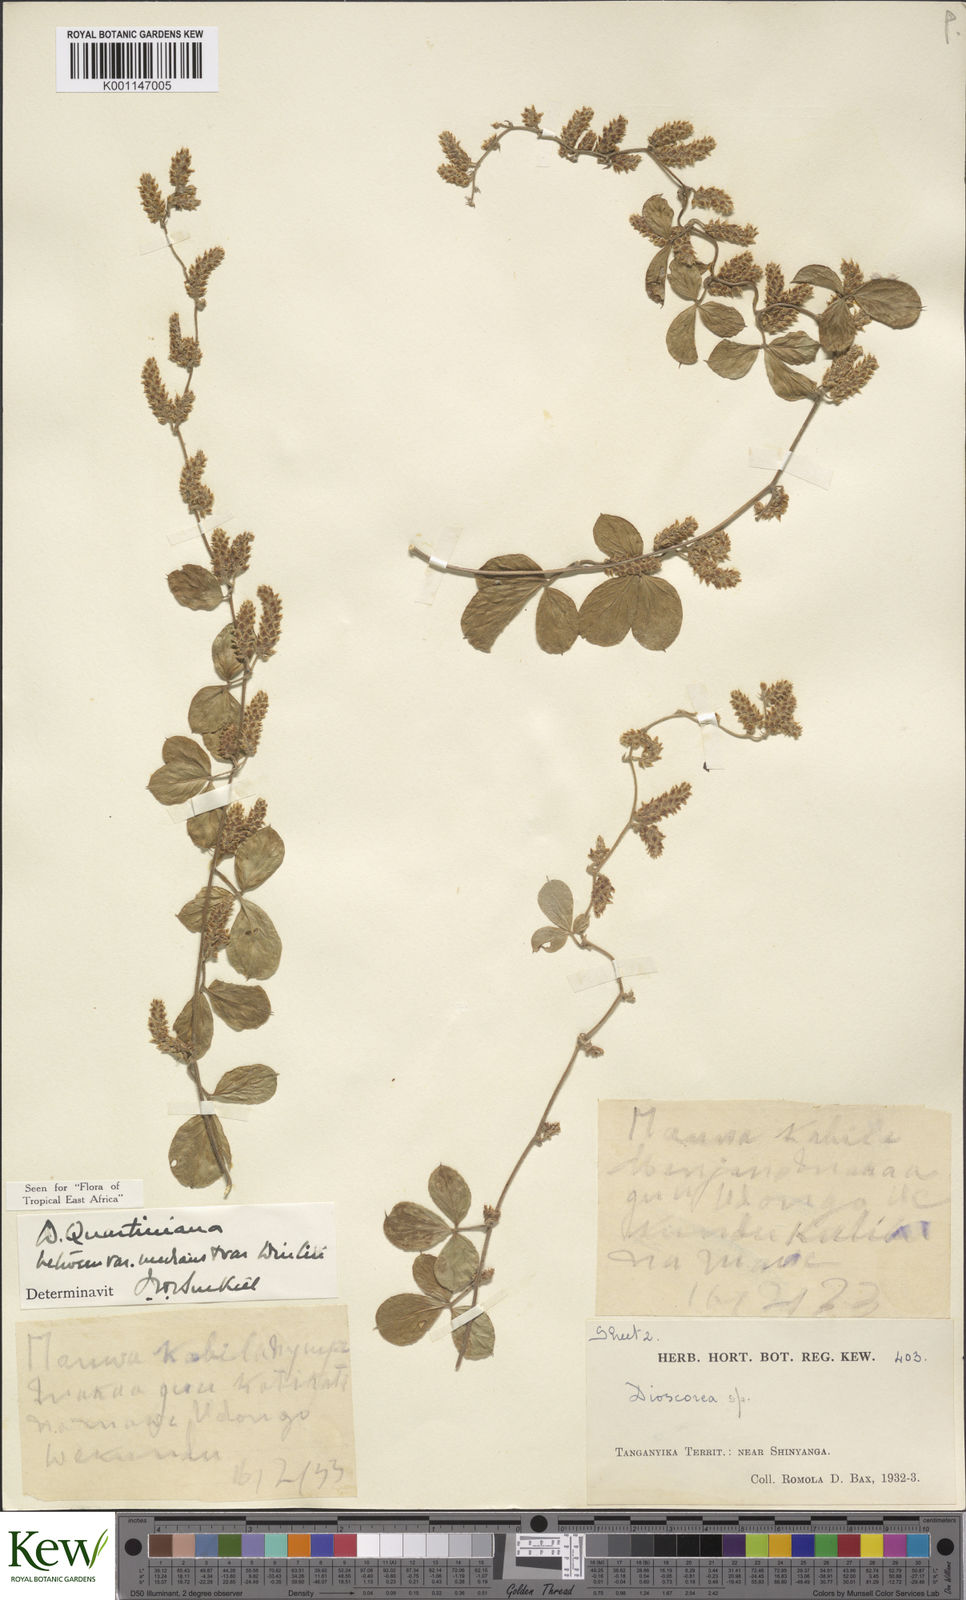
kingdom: Plantae
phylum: Tracheophyta
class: Liliopsida
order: Dioscoreales
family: Dioscoreaceae
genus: Dioscorea
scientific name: Dioscorea quartiniana
